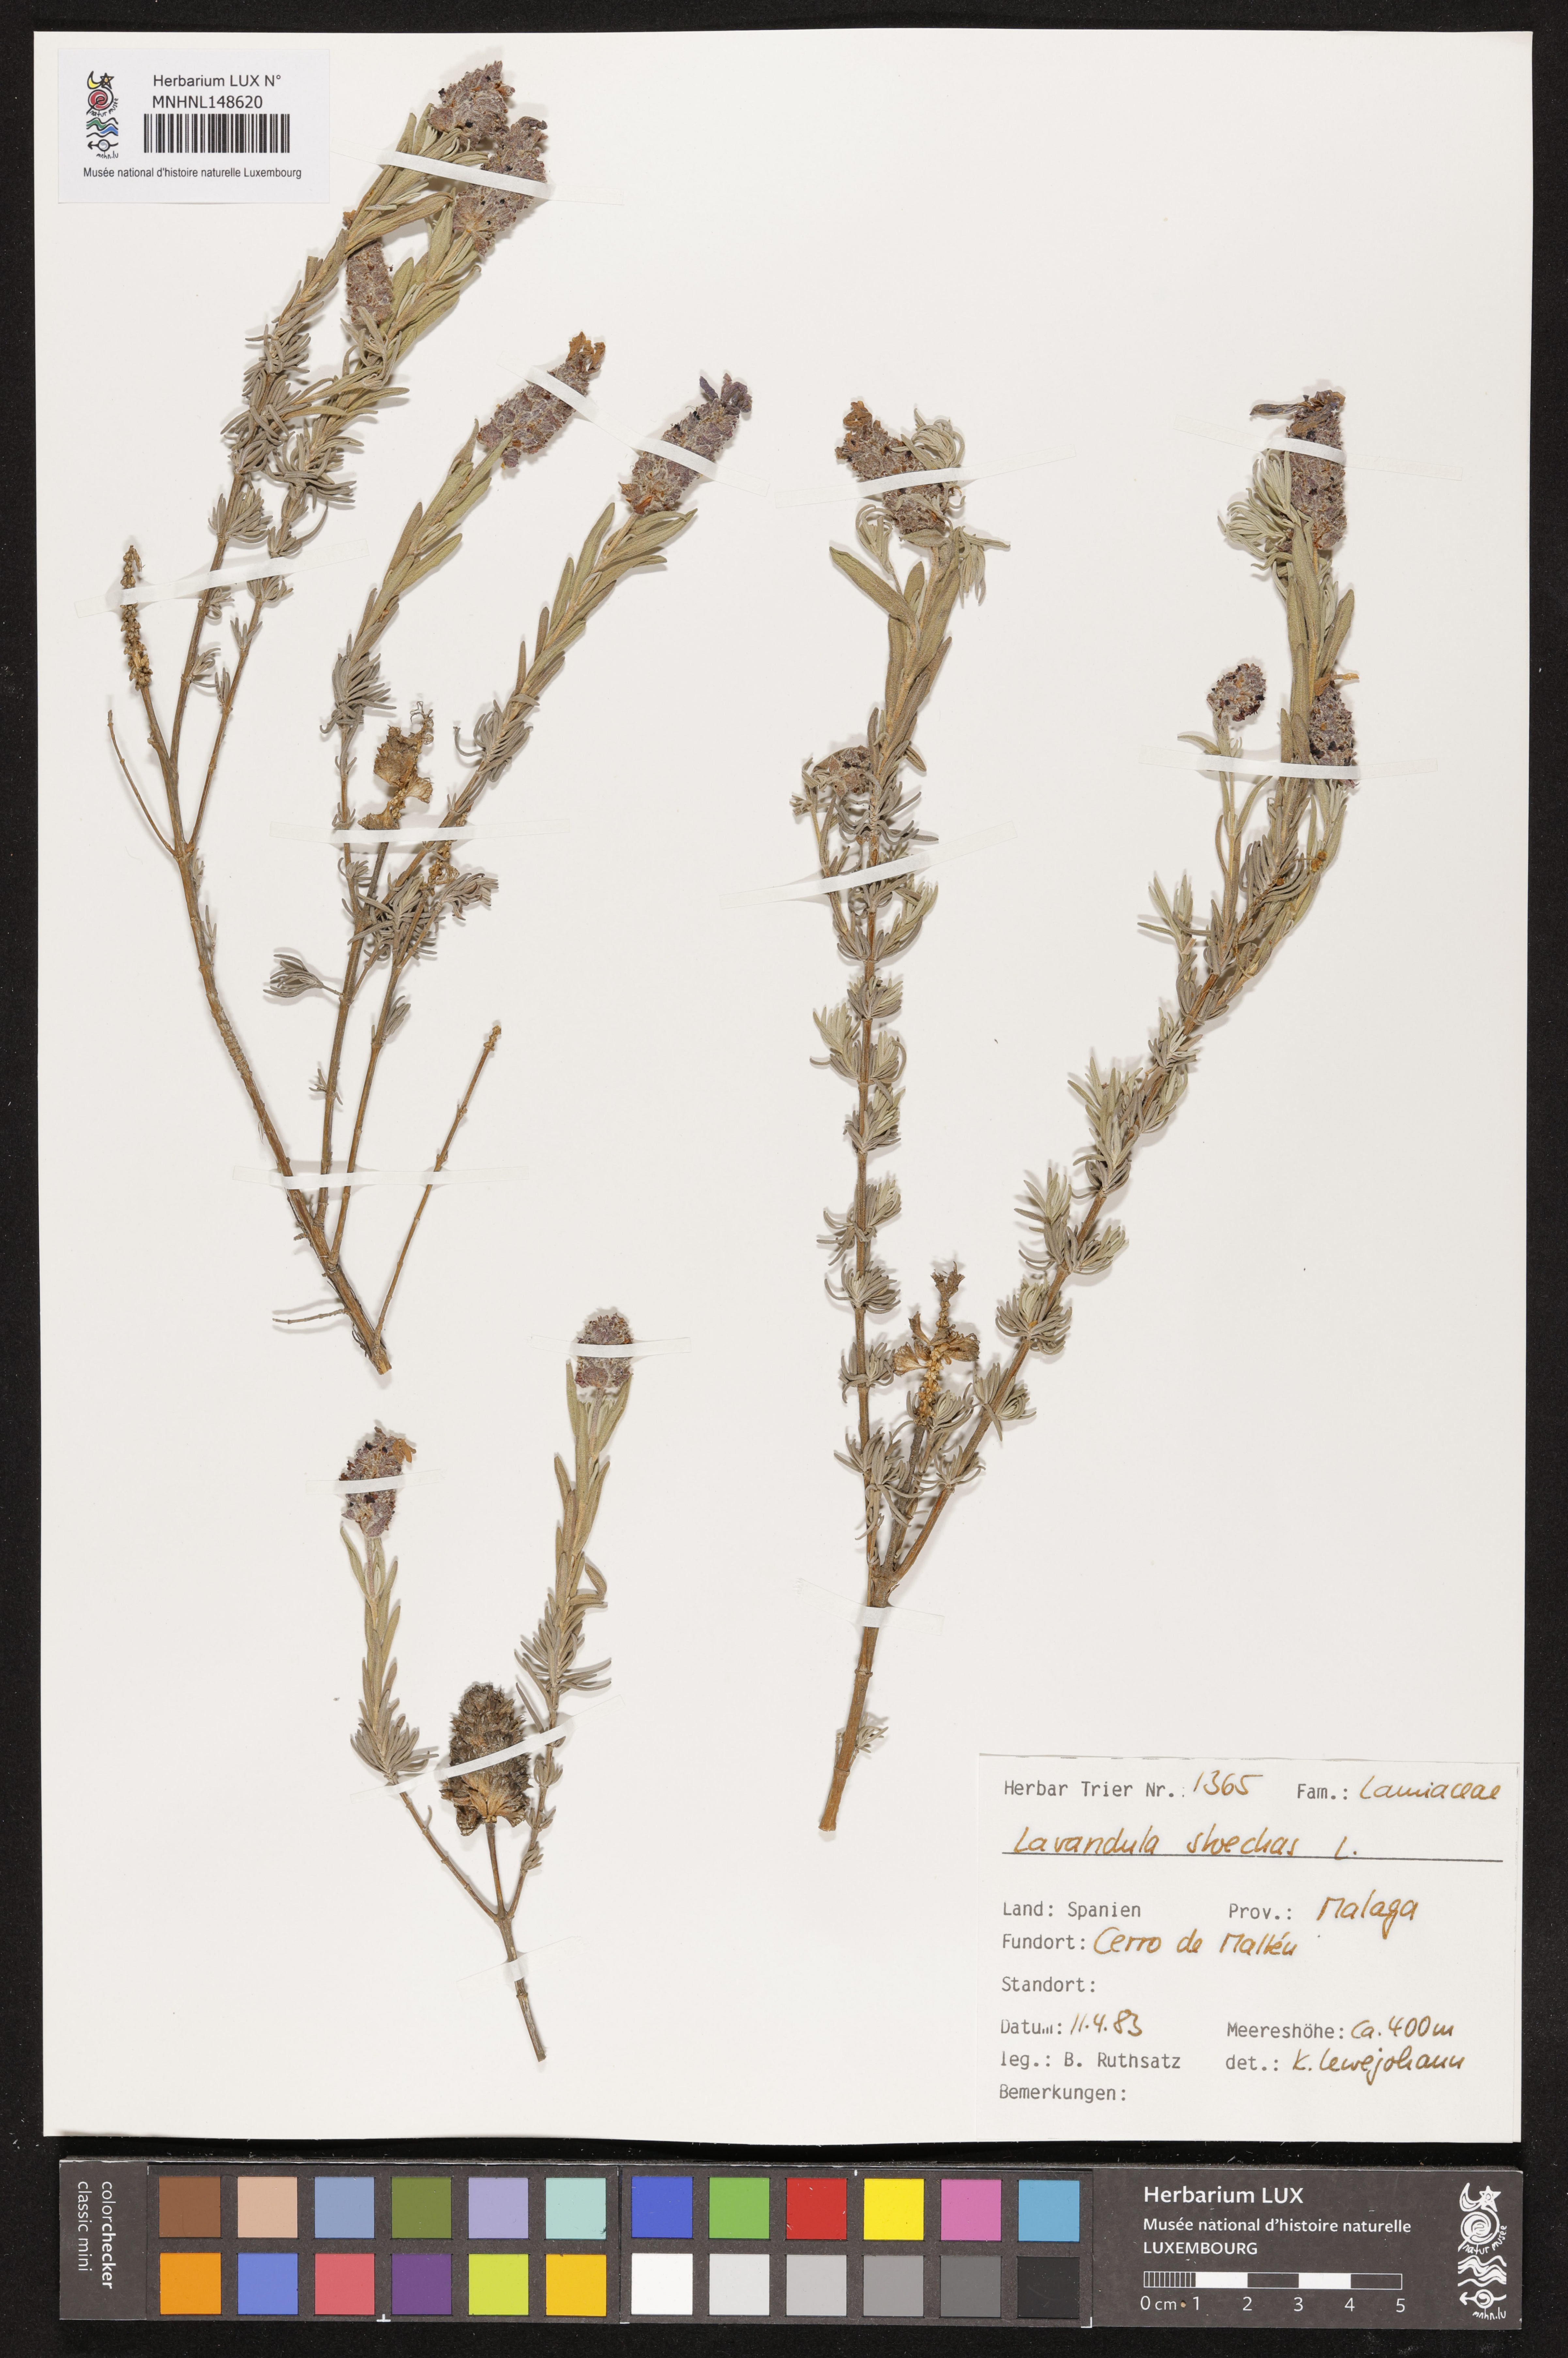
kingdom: Plantae
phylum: Tracheophyta
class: Magnoliopsida
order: Lamiales
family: Lamiaceae
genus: Lavandula
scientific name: Lavandula stoechas
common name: French lavender
